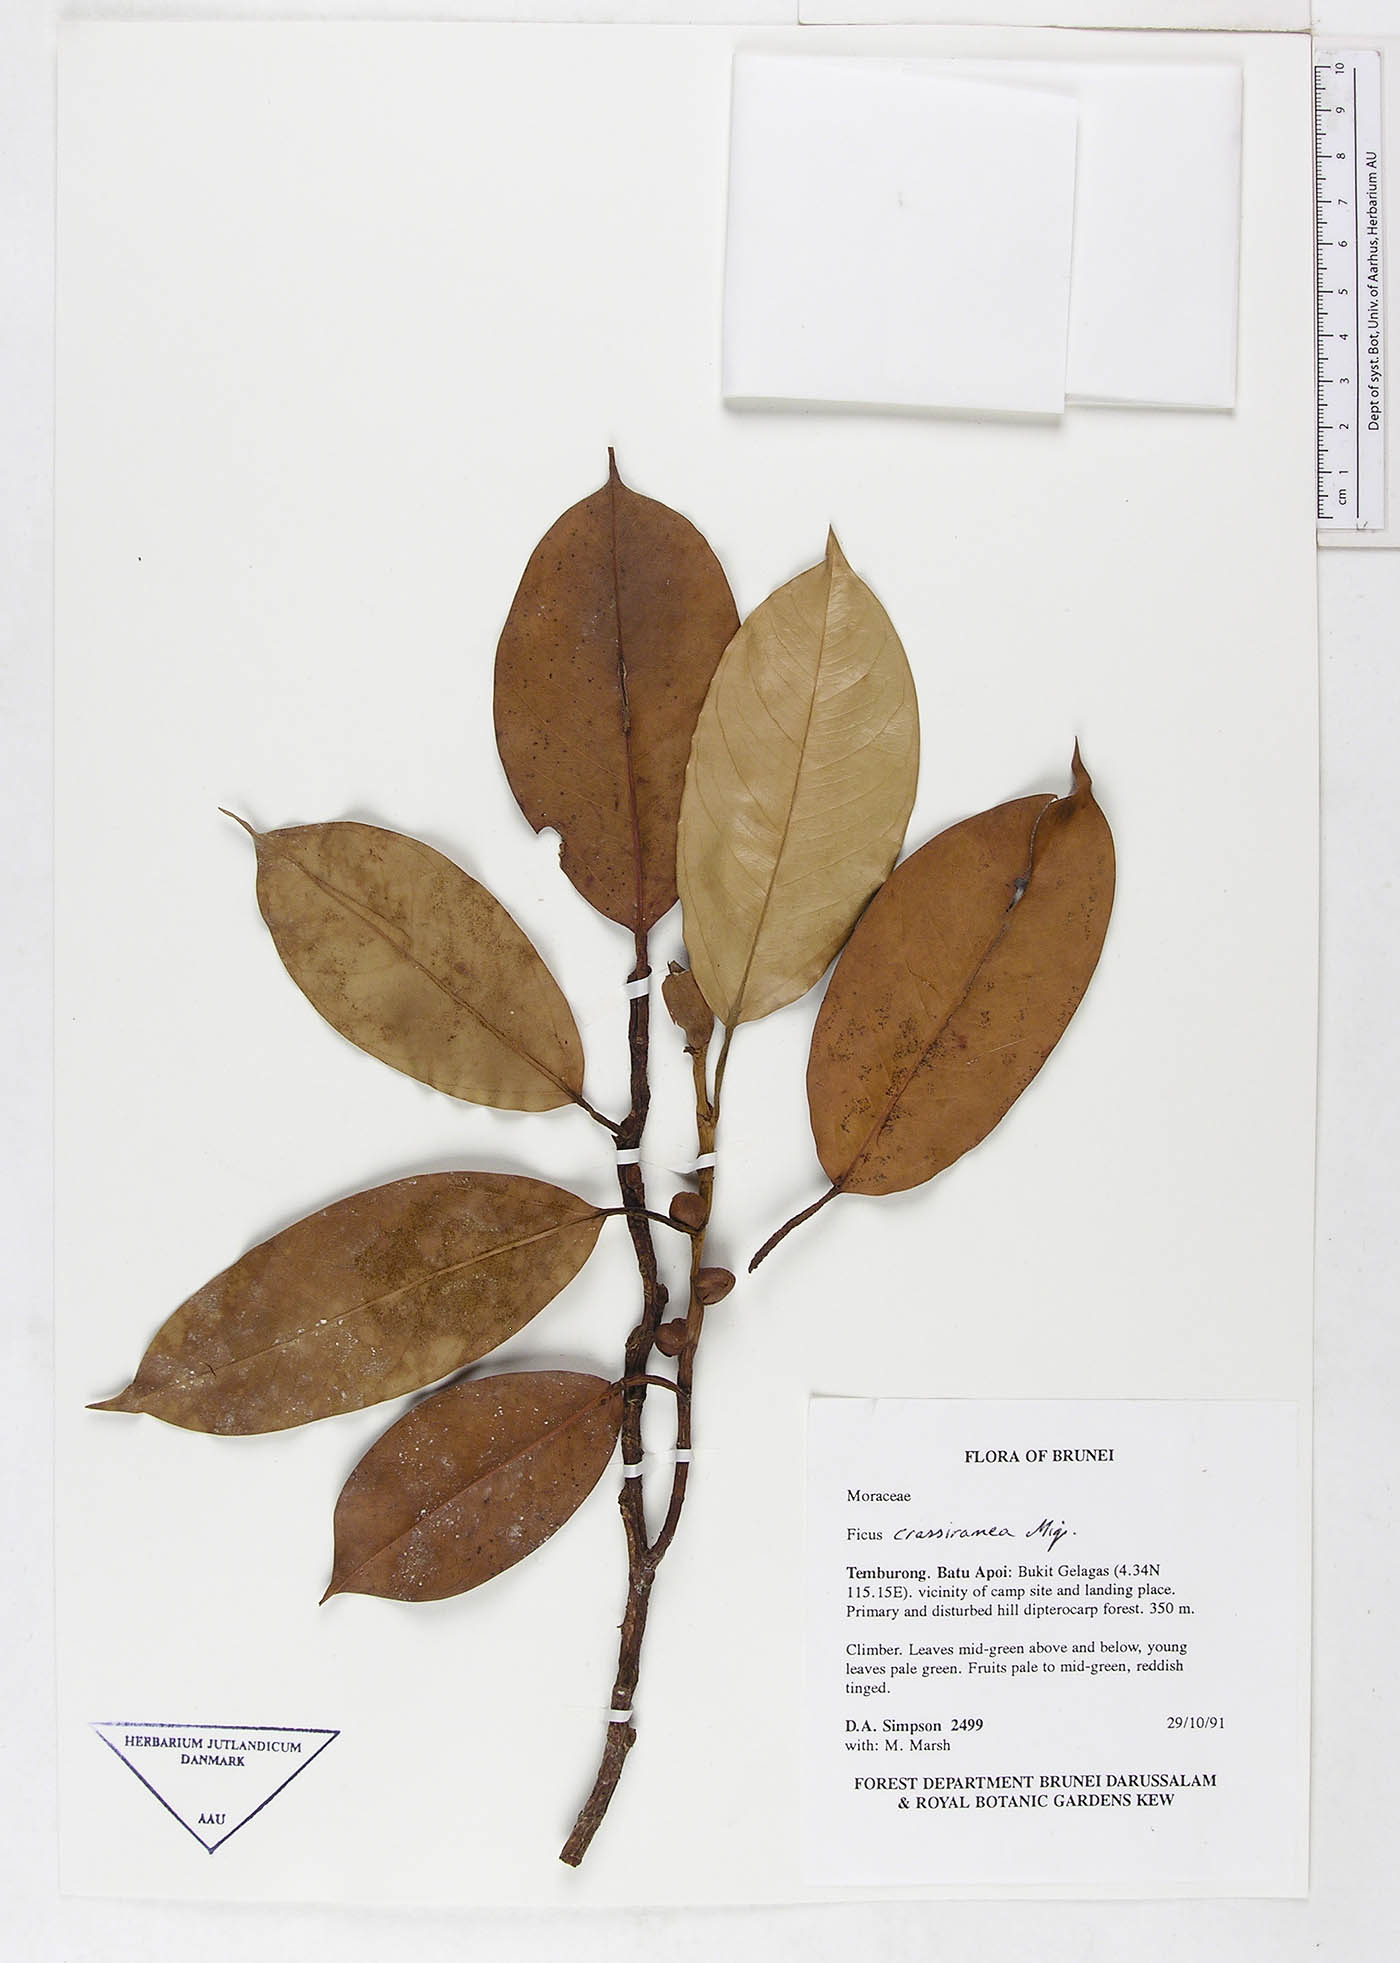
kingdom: Plantae
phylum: Tracheophyta
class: Magnoliopsida
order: Rosales
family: Moraceae
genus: Ficus
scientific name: Ficus crassiramea
